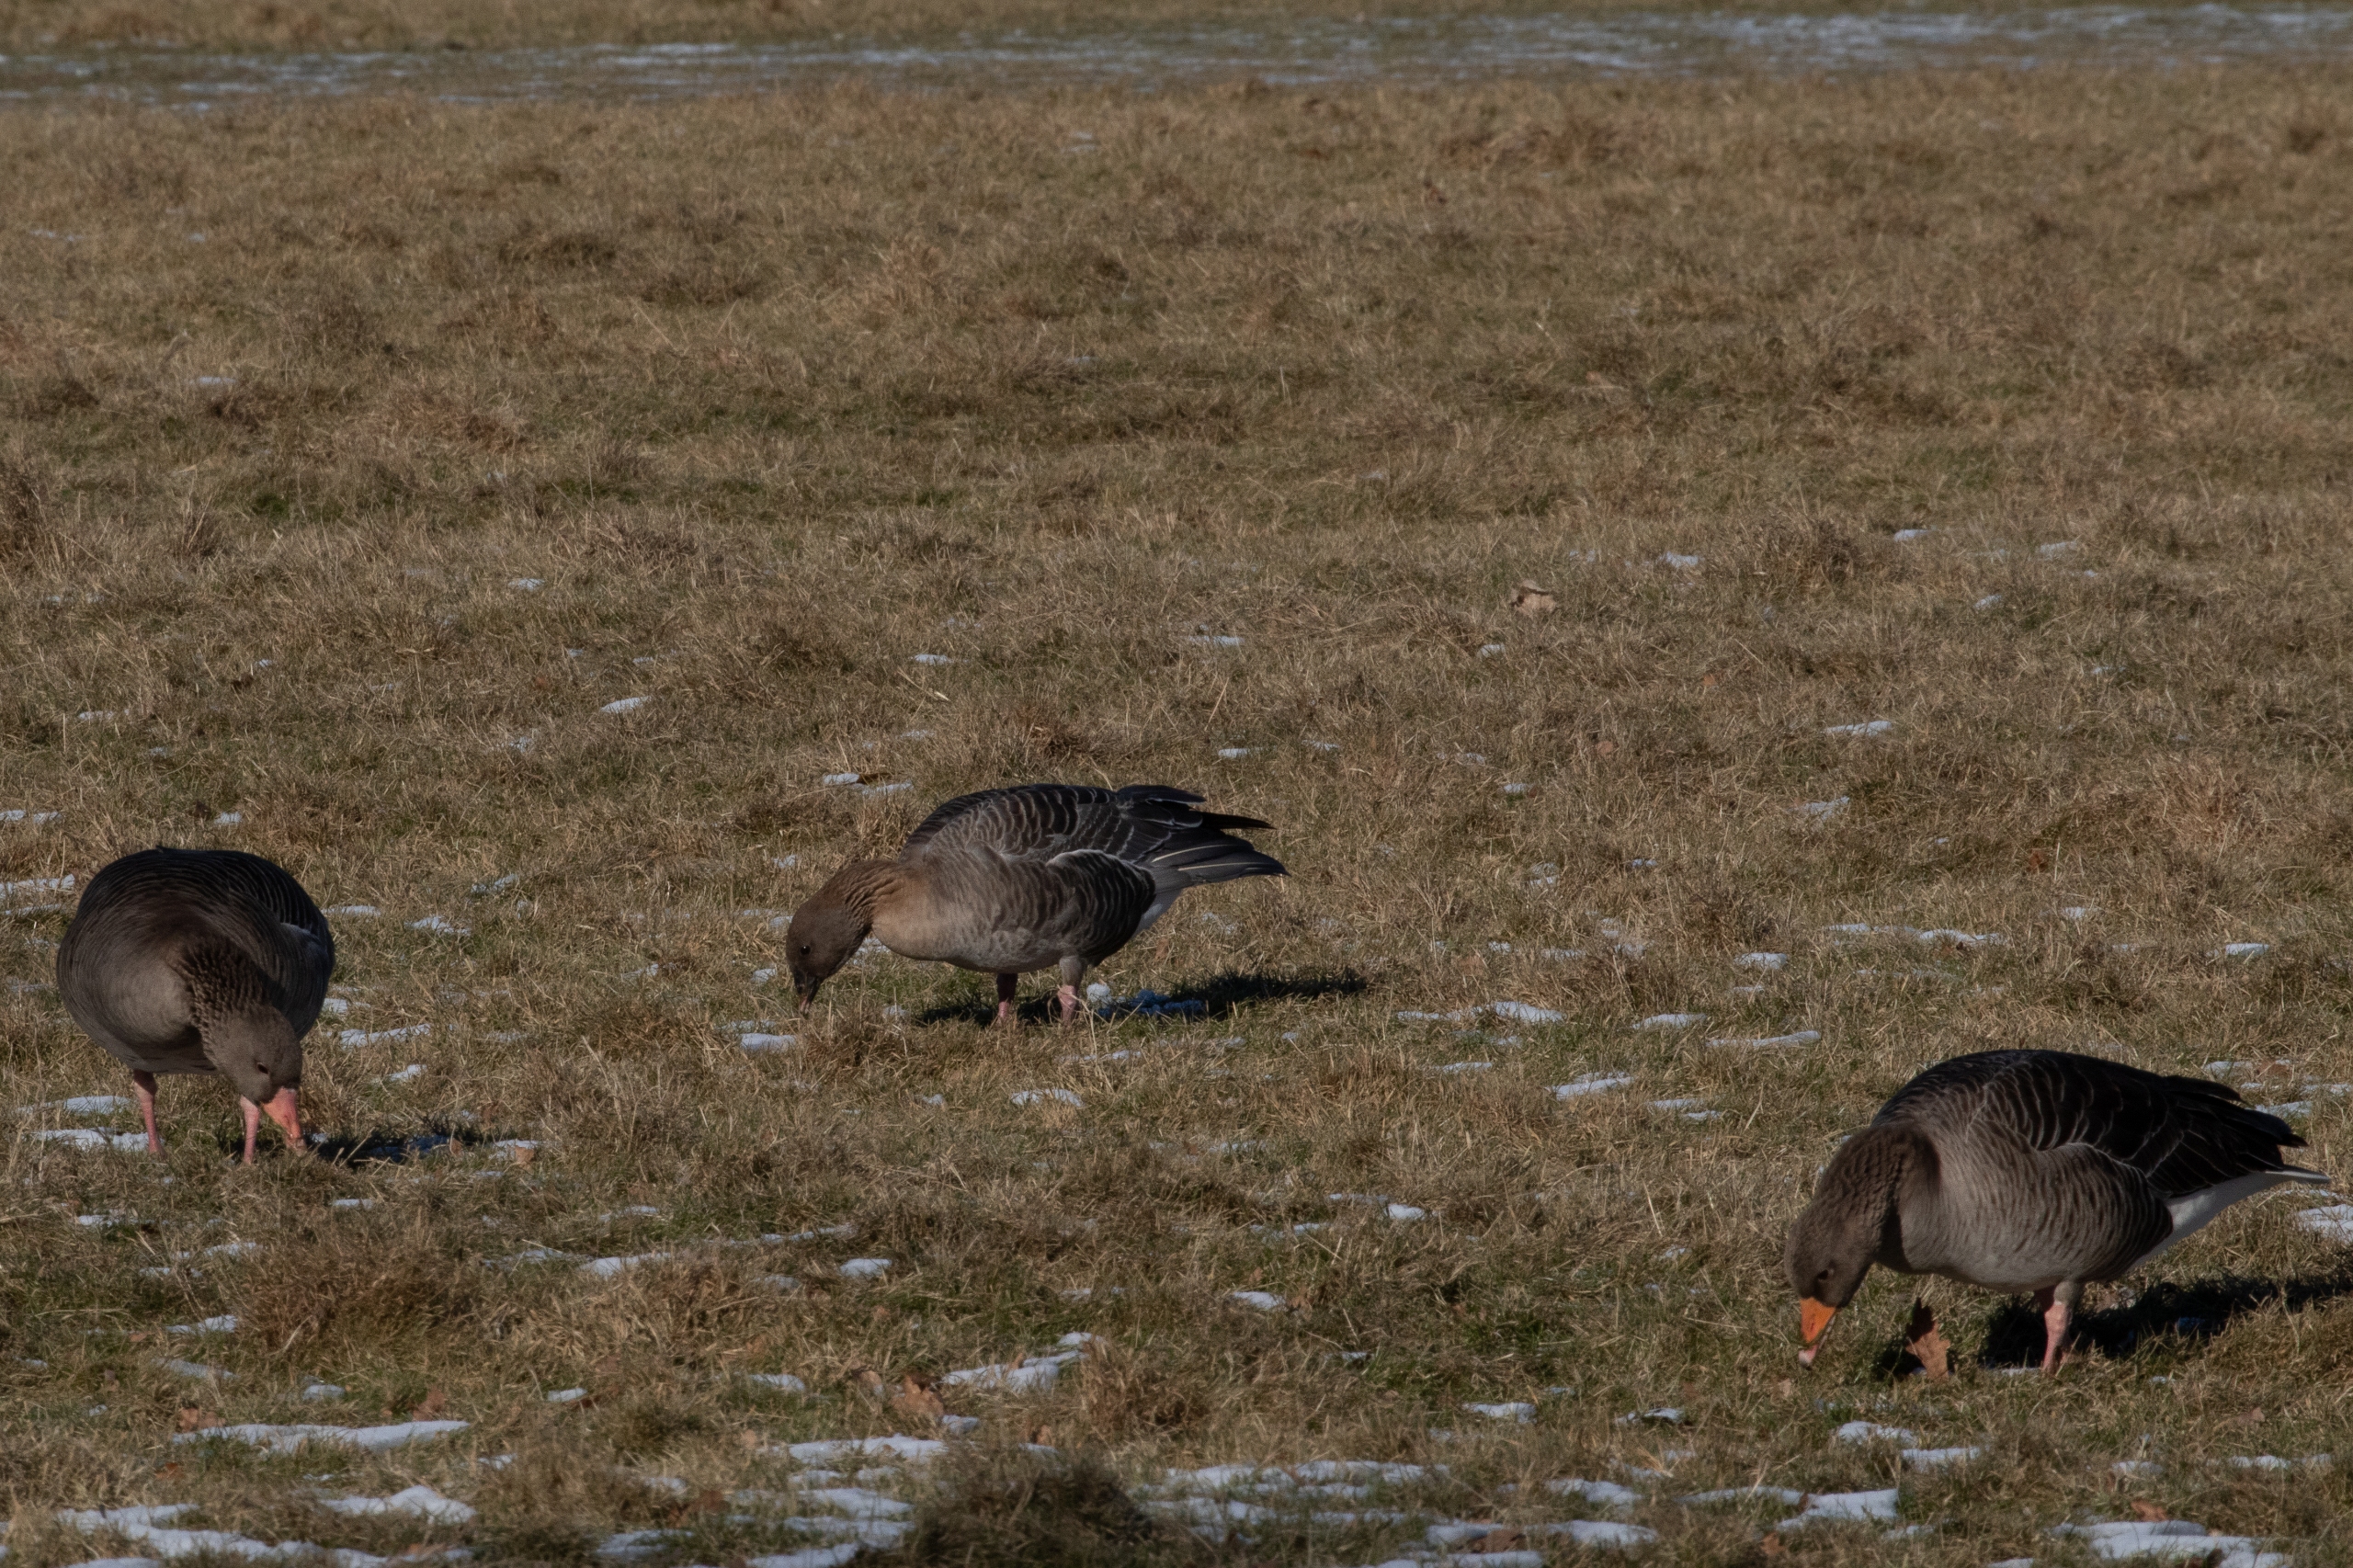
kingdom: Animalia
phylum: Chordata
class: Aves
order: Anseriformes
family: Anatidae
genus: Anser
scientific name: Anser brachyrhynchus
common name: Kortnæbbet gås
